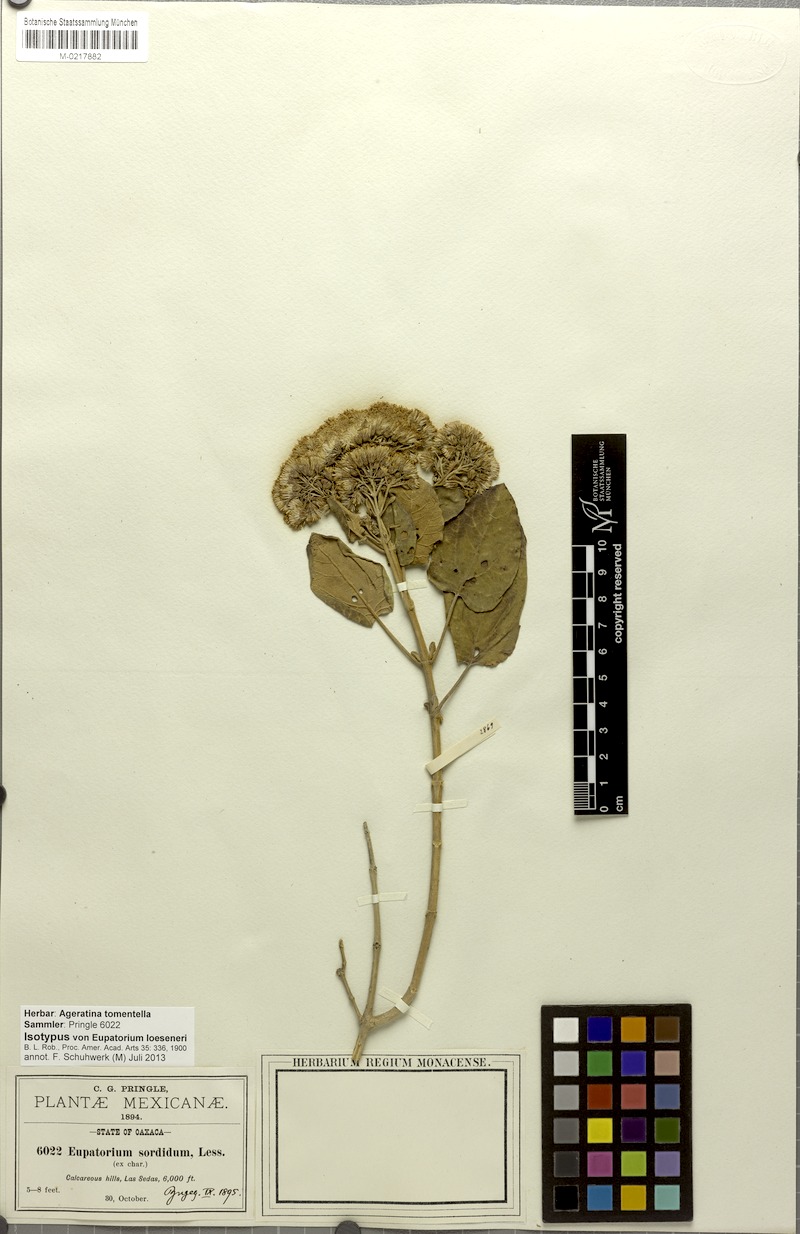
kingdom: Plantae
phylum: Tracheophyta
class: Magnoliopsida
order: Asterales
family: Asteraceae
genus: Ageratina
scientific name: Ageratina tomentella
